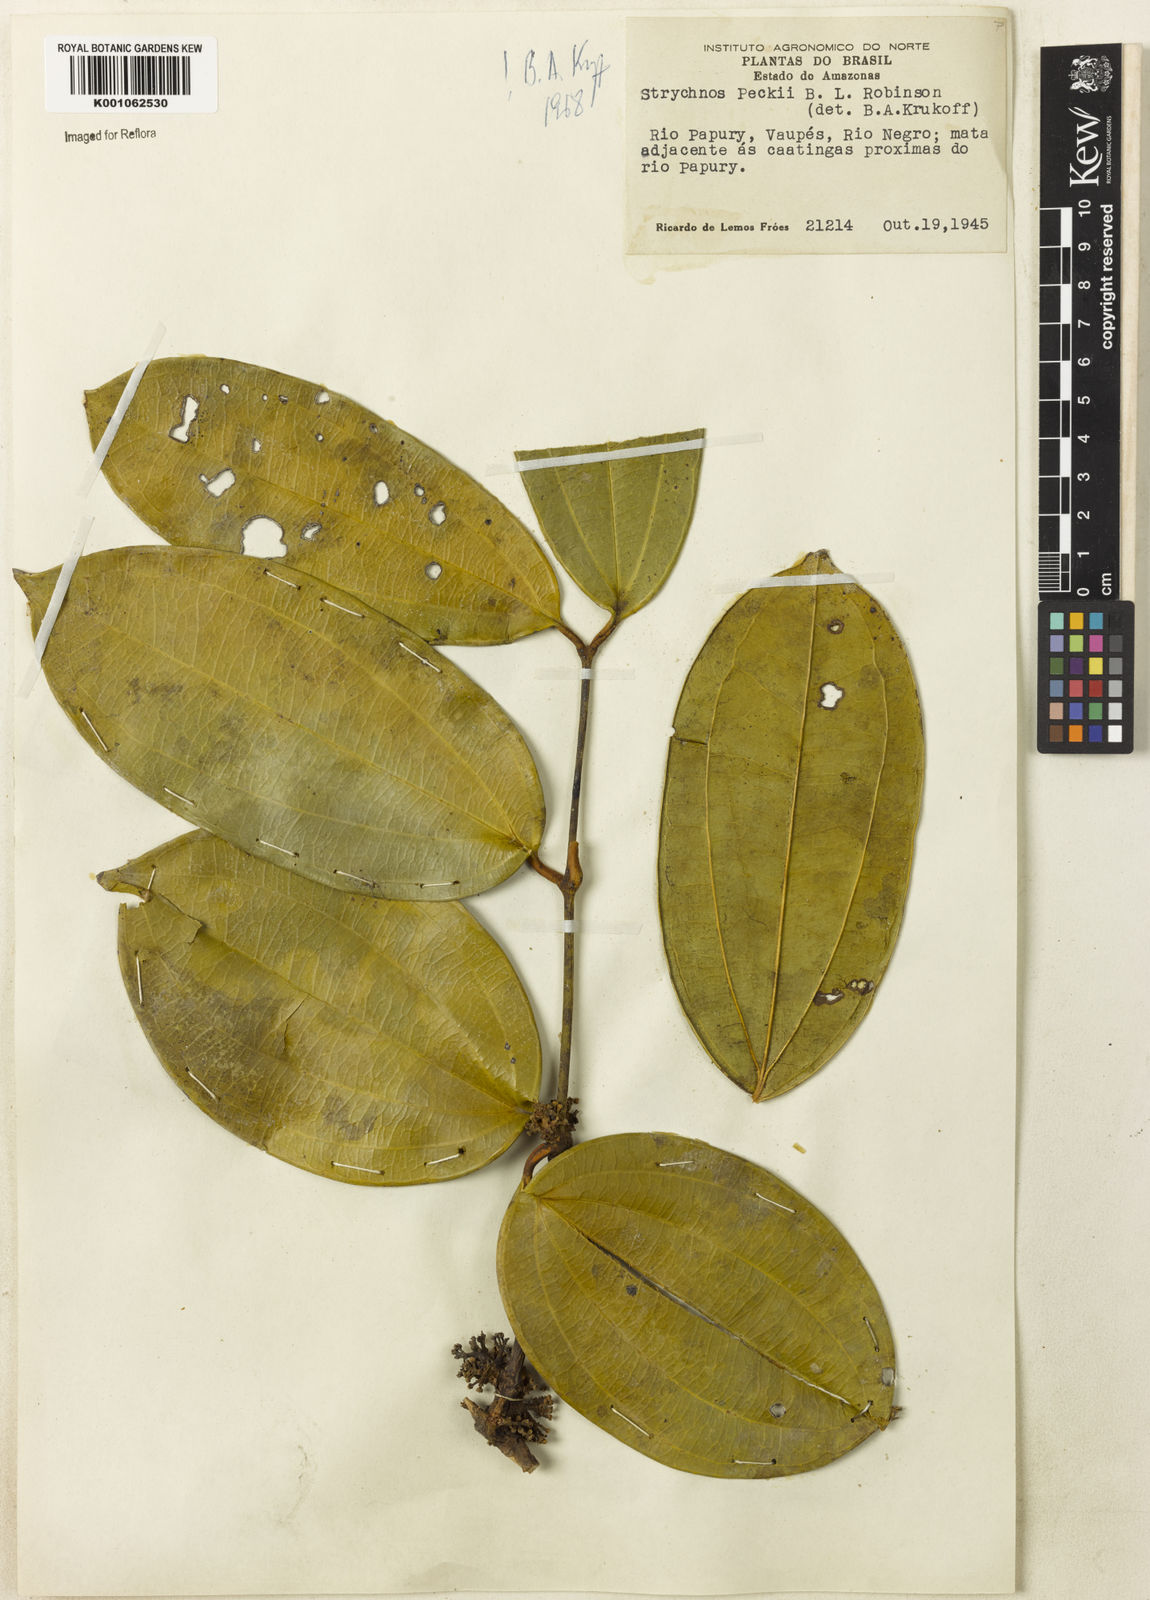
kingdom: Plantae
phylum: Tracheophyta
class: Magnoliopsida
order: Gentianales
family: Loganiaceae
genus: Strychnos
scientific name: Strychnos peckii
